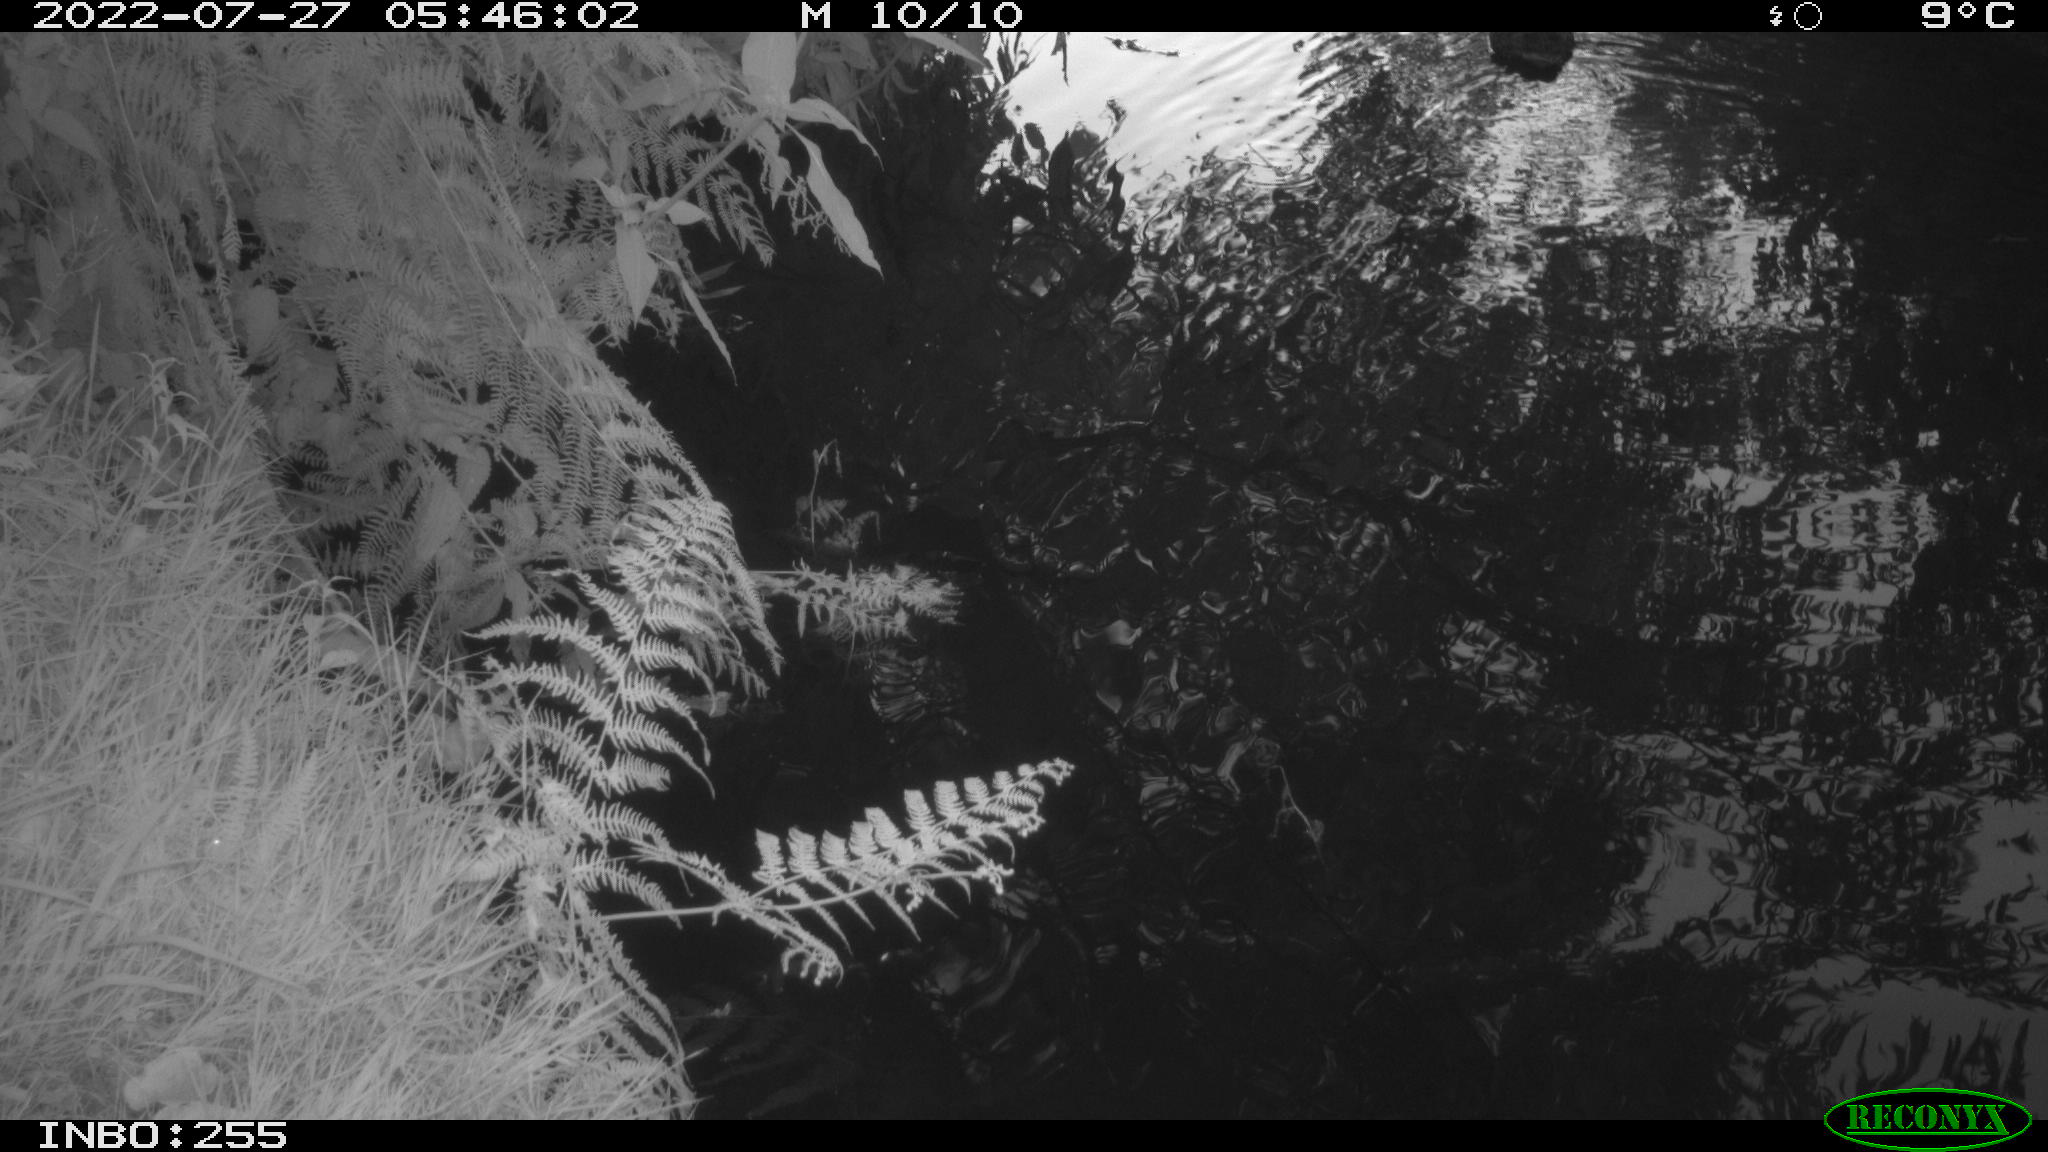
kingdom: Animalia
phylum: Chordata
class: Aves
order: Anseriformes
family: Anatidae
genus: Anas
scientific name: Anas platyrhynchos
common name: Mallard
